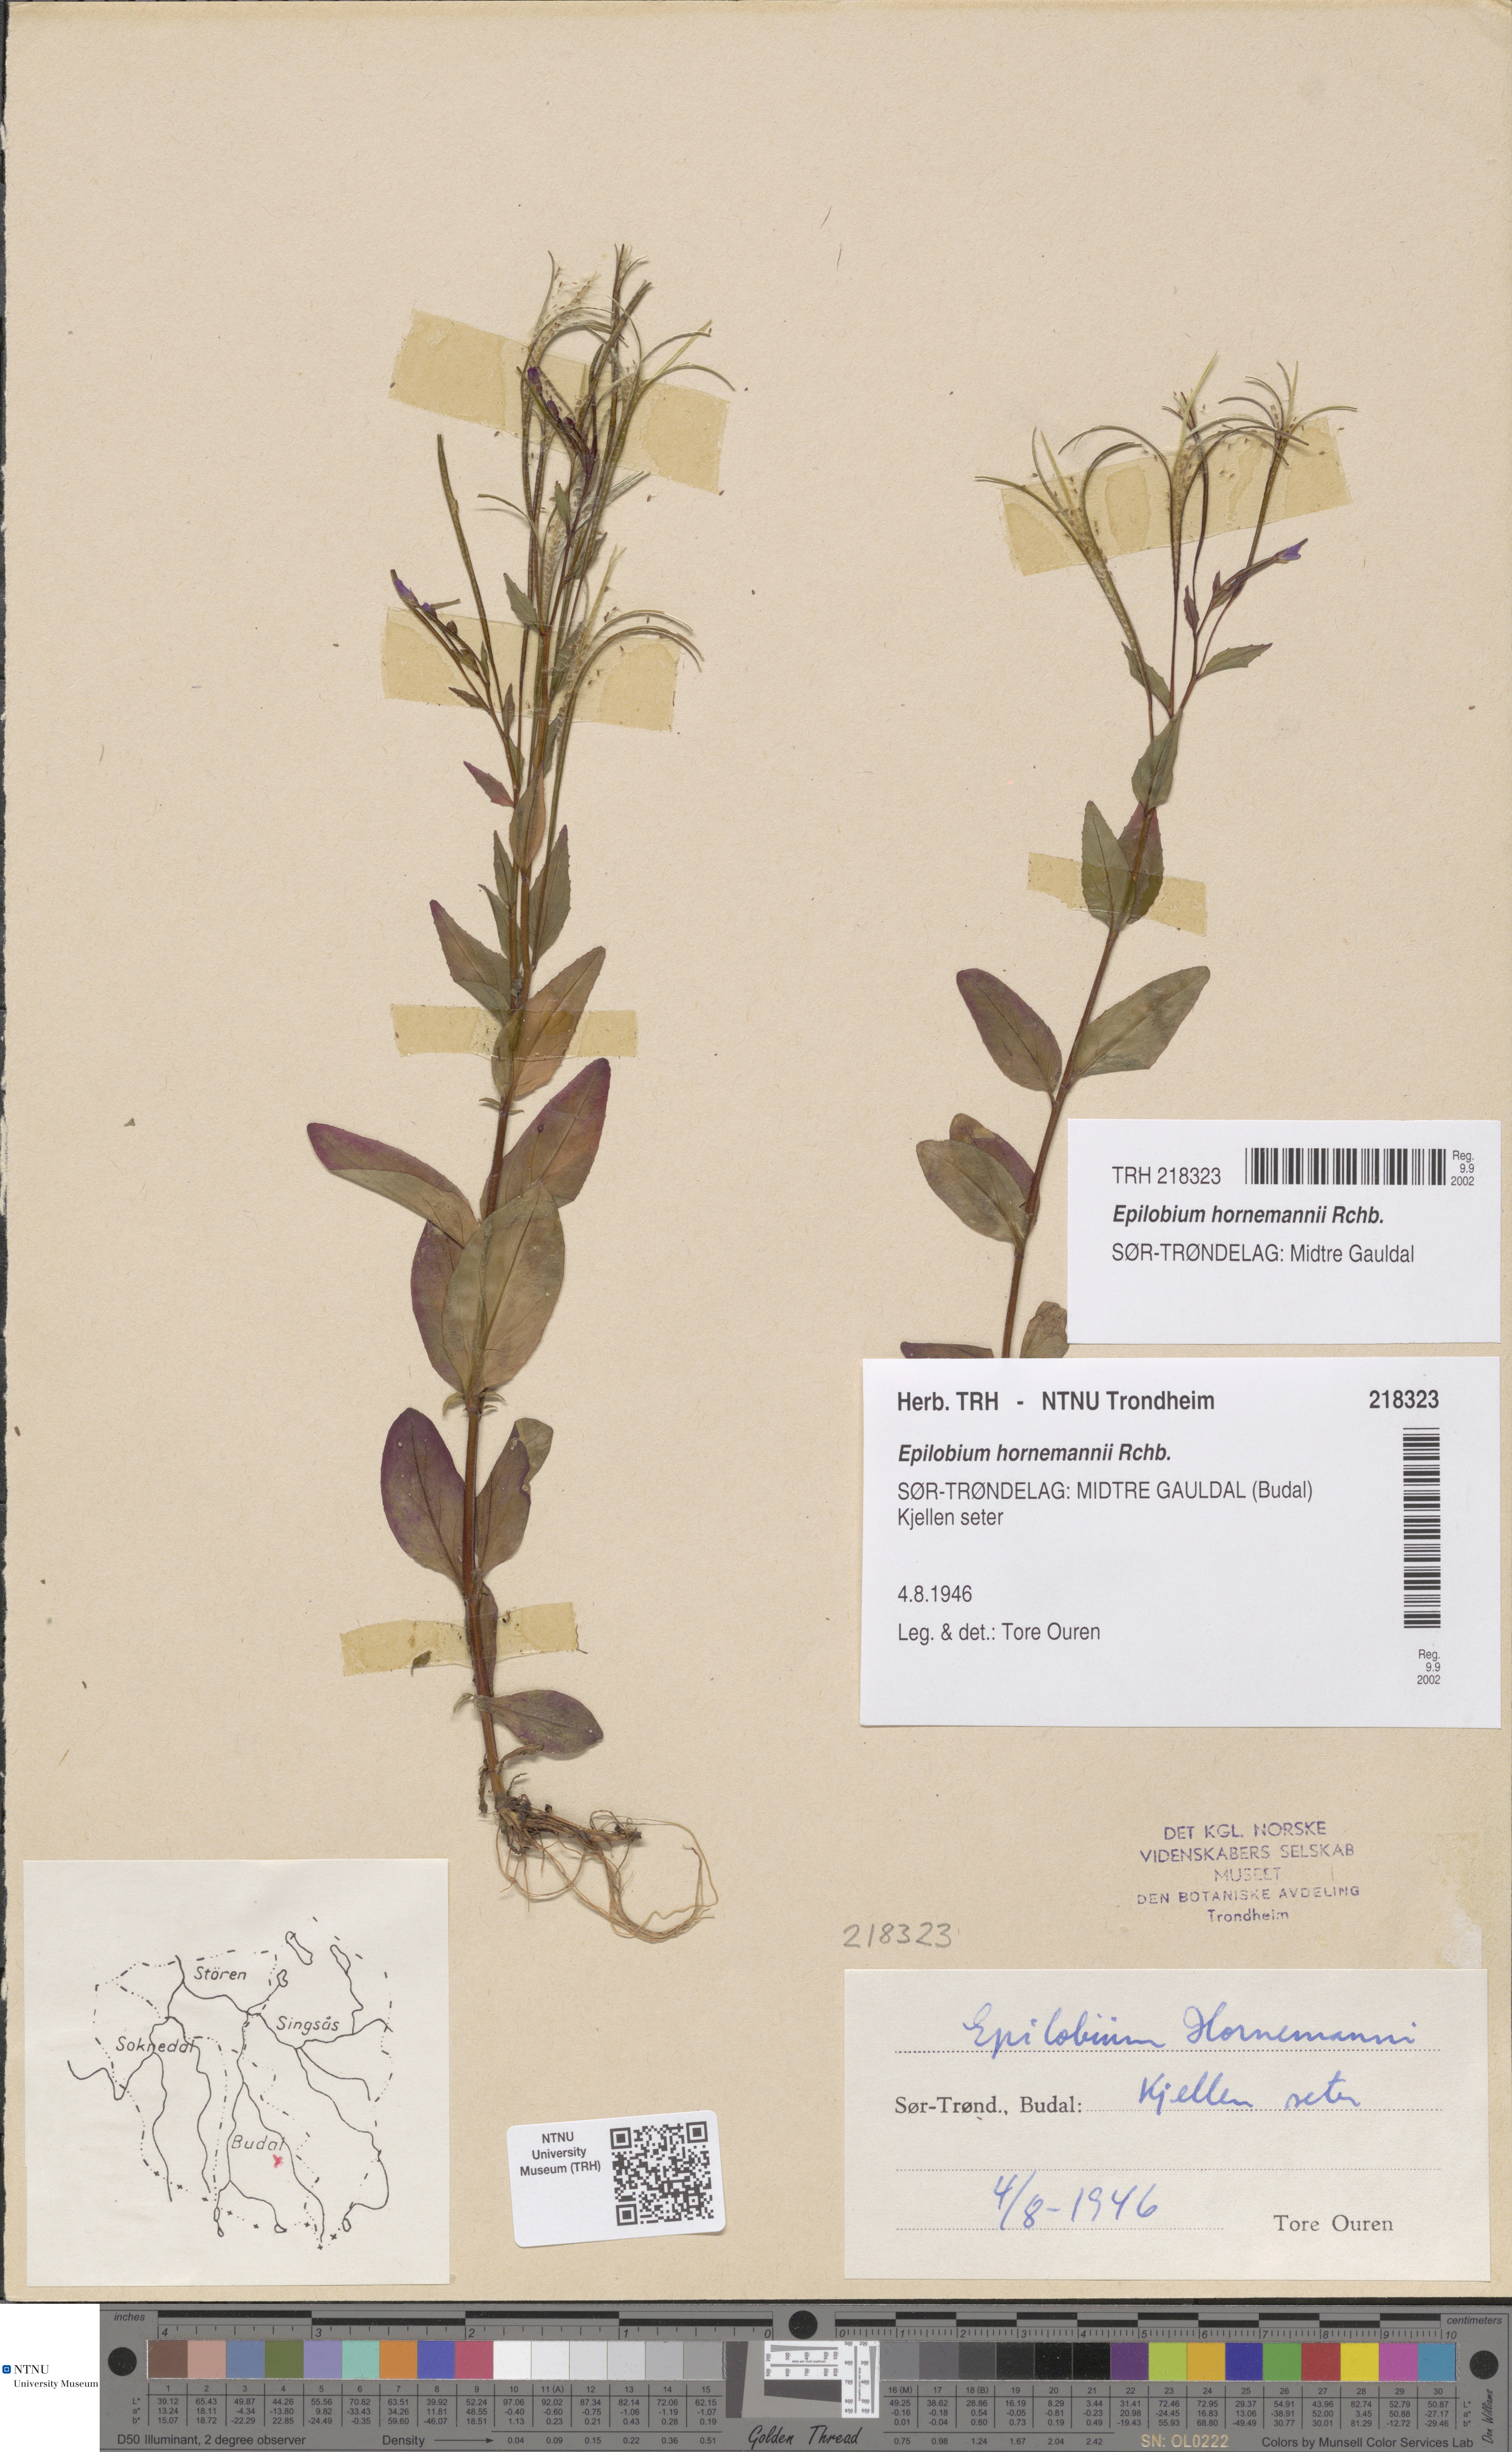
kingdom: Plantae
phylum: Tracheophyta
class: Magnoliopsida
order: Myrtales
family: Onagraceae
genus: Epilobium
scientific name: Epilobium hornemannii
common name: Hornemann's willowherb
